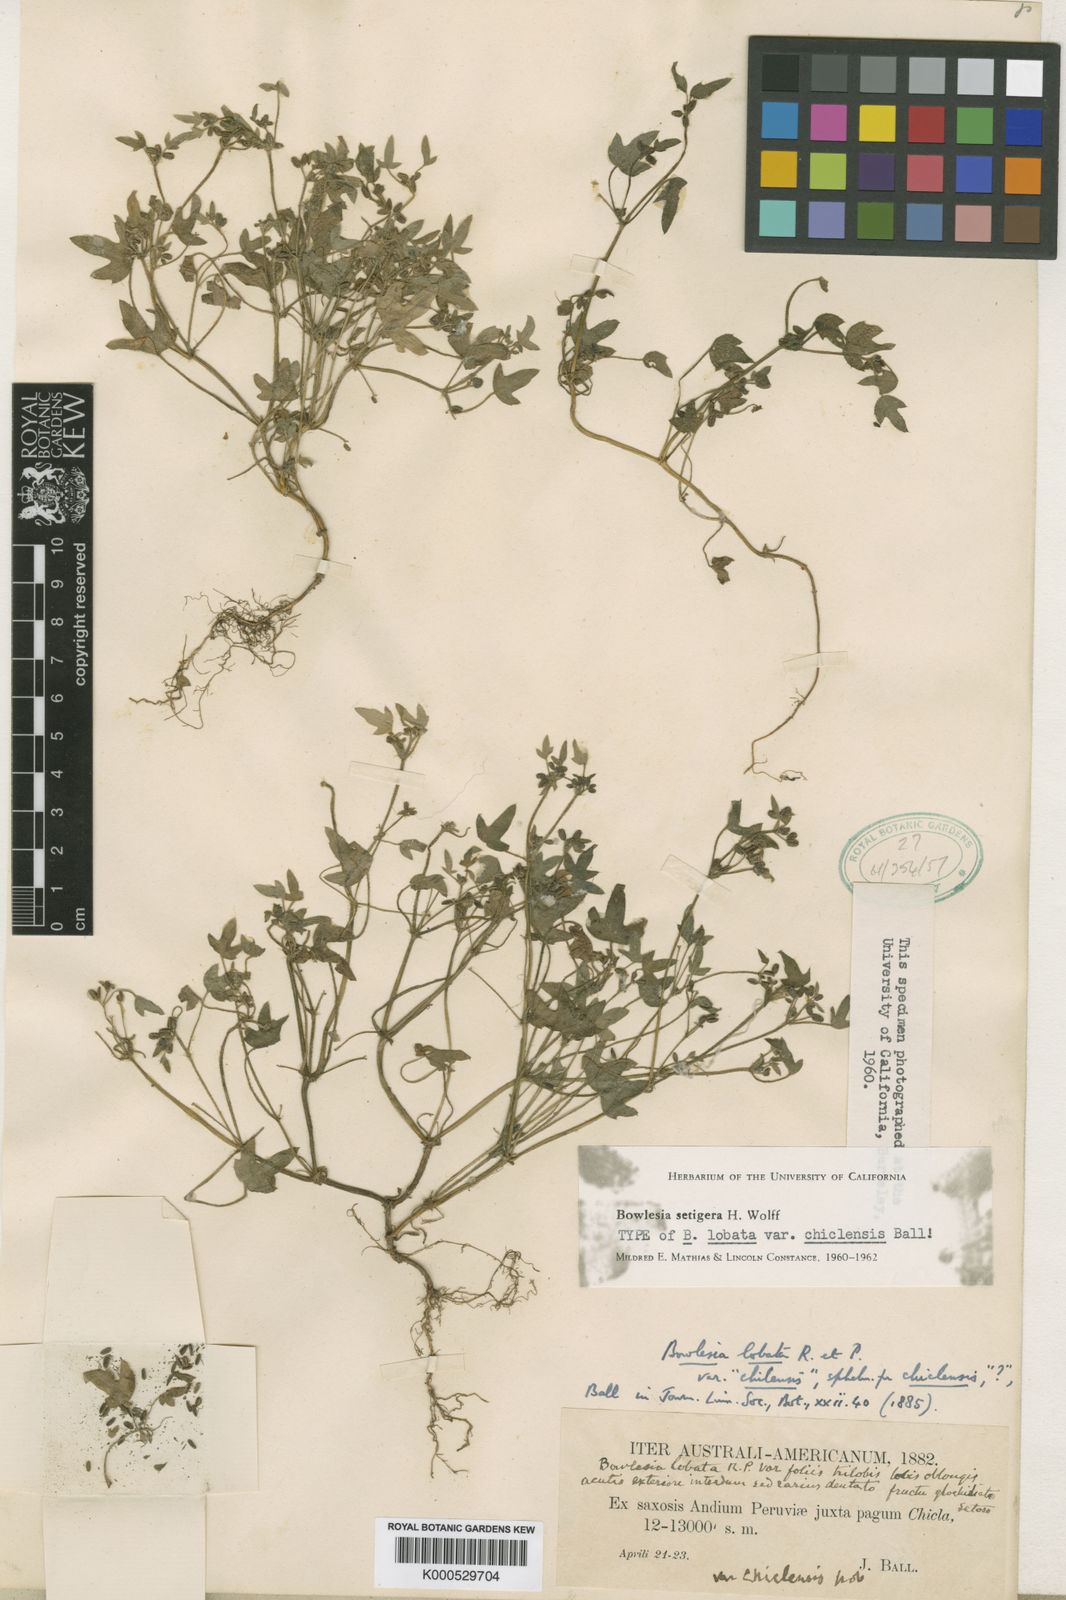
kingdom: Plantae
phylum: Tracheophyta
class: Magnoliopsida
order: Apiales
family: Apiaceae
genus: Bowlesia
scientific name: Bowlesia setigera
